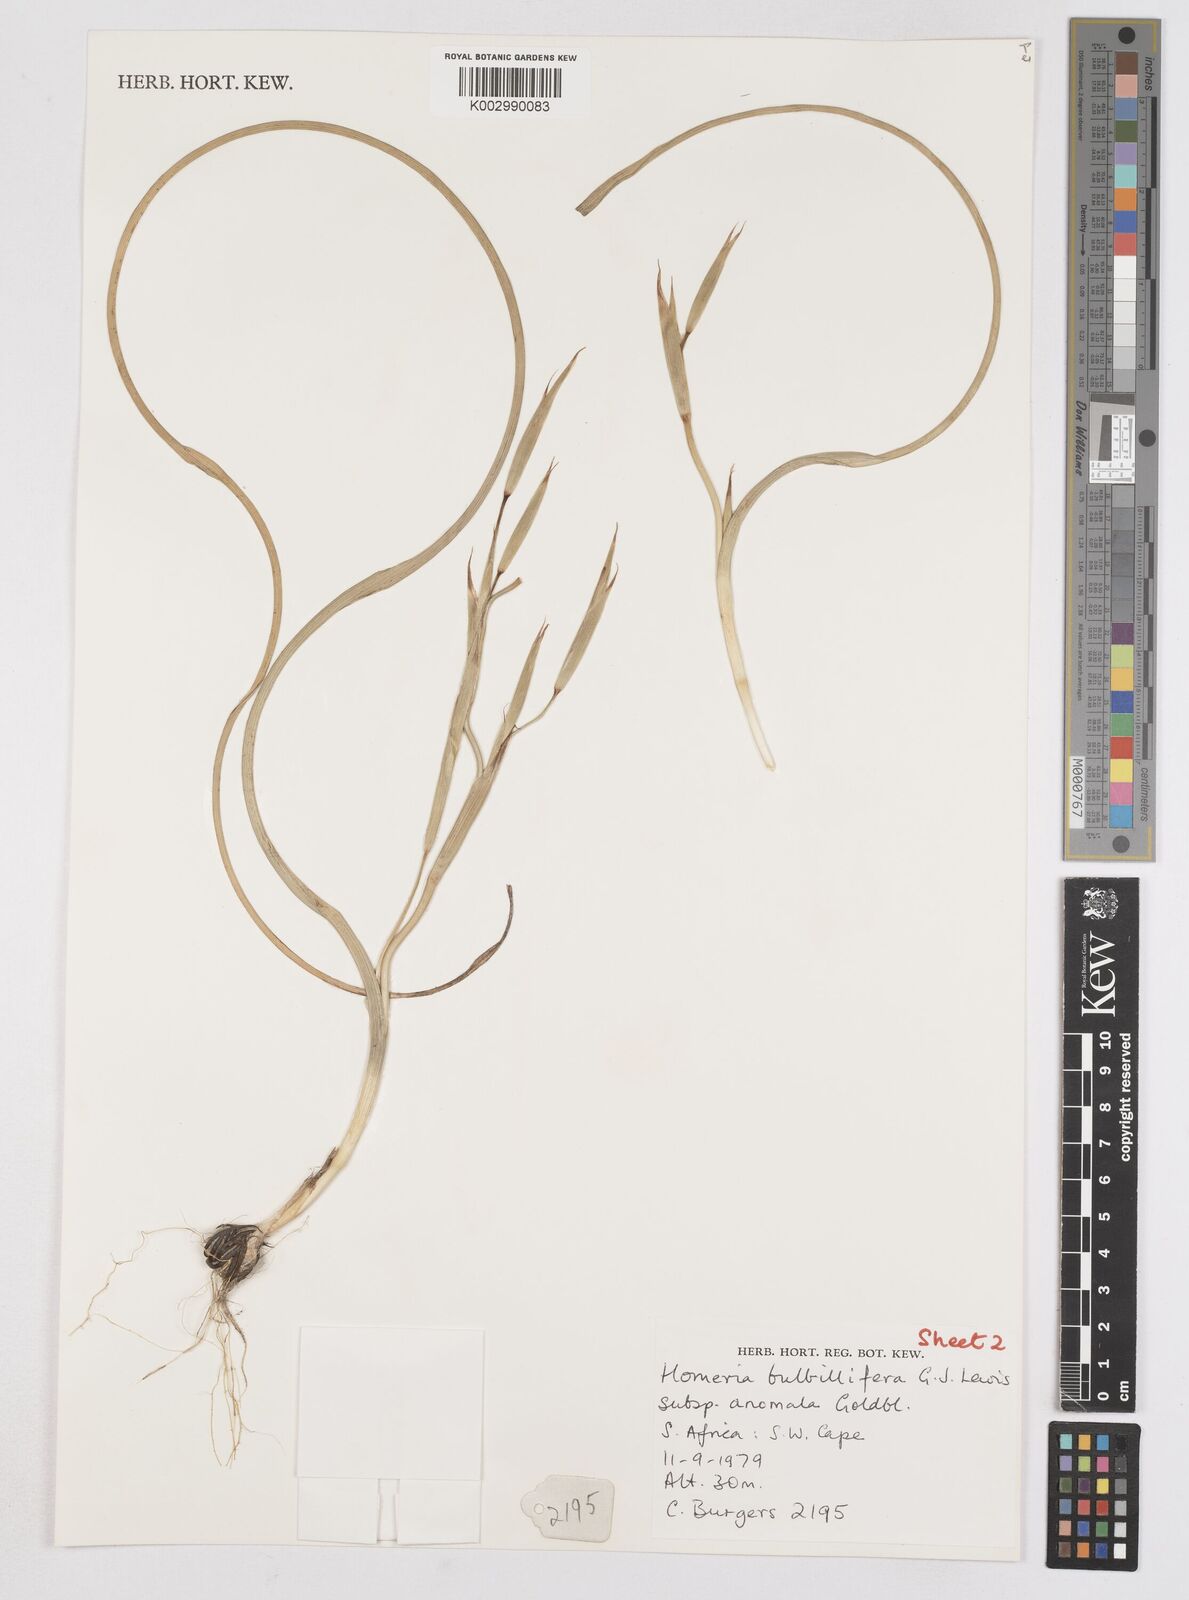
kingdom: Plantae
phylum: Tracheophyta
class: Liliopsida
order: Asparagales
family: Iridaceae
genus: Moraea
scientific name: Moraea bulbillifera
